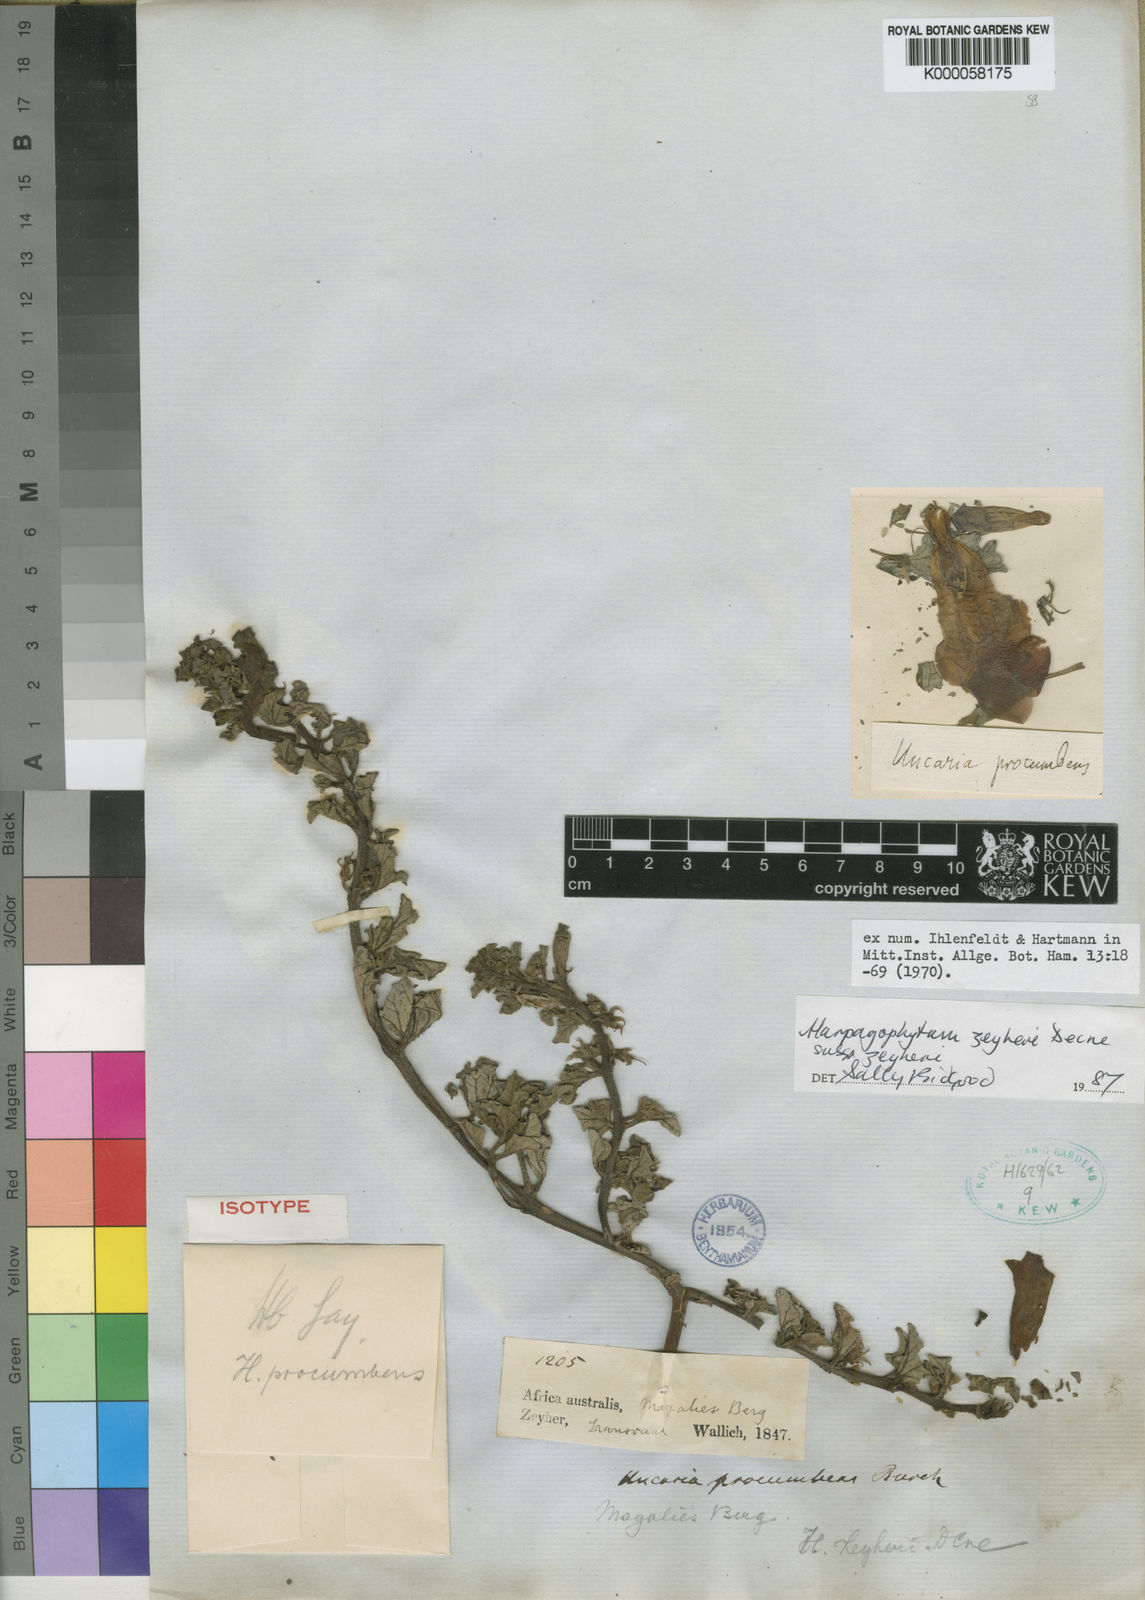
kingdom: Plantae
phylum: Tracheophyta
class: Magnoliopsida
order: Lamiales
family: Pedaliaceae
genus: Harpagophytum
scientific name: Harpagophytum zeyheri
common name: Grappleplant
